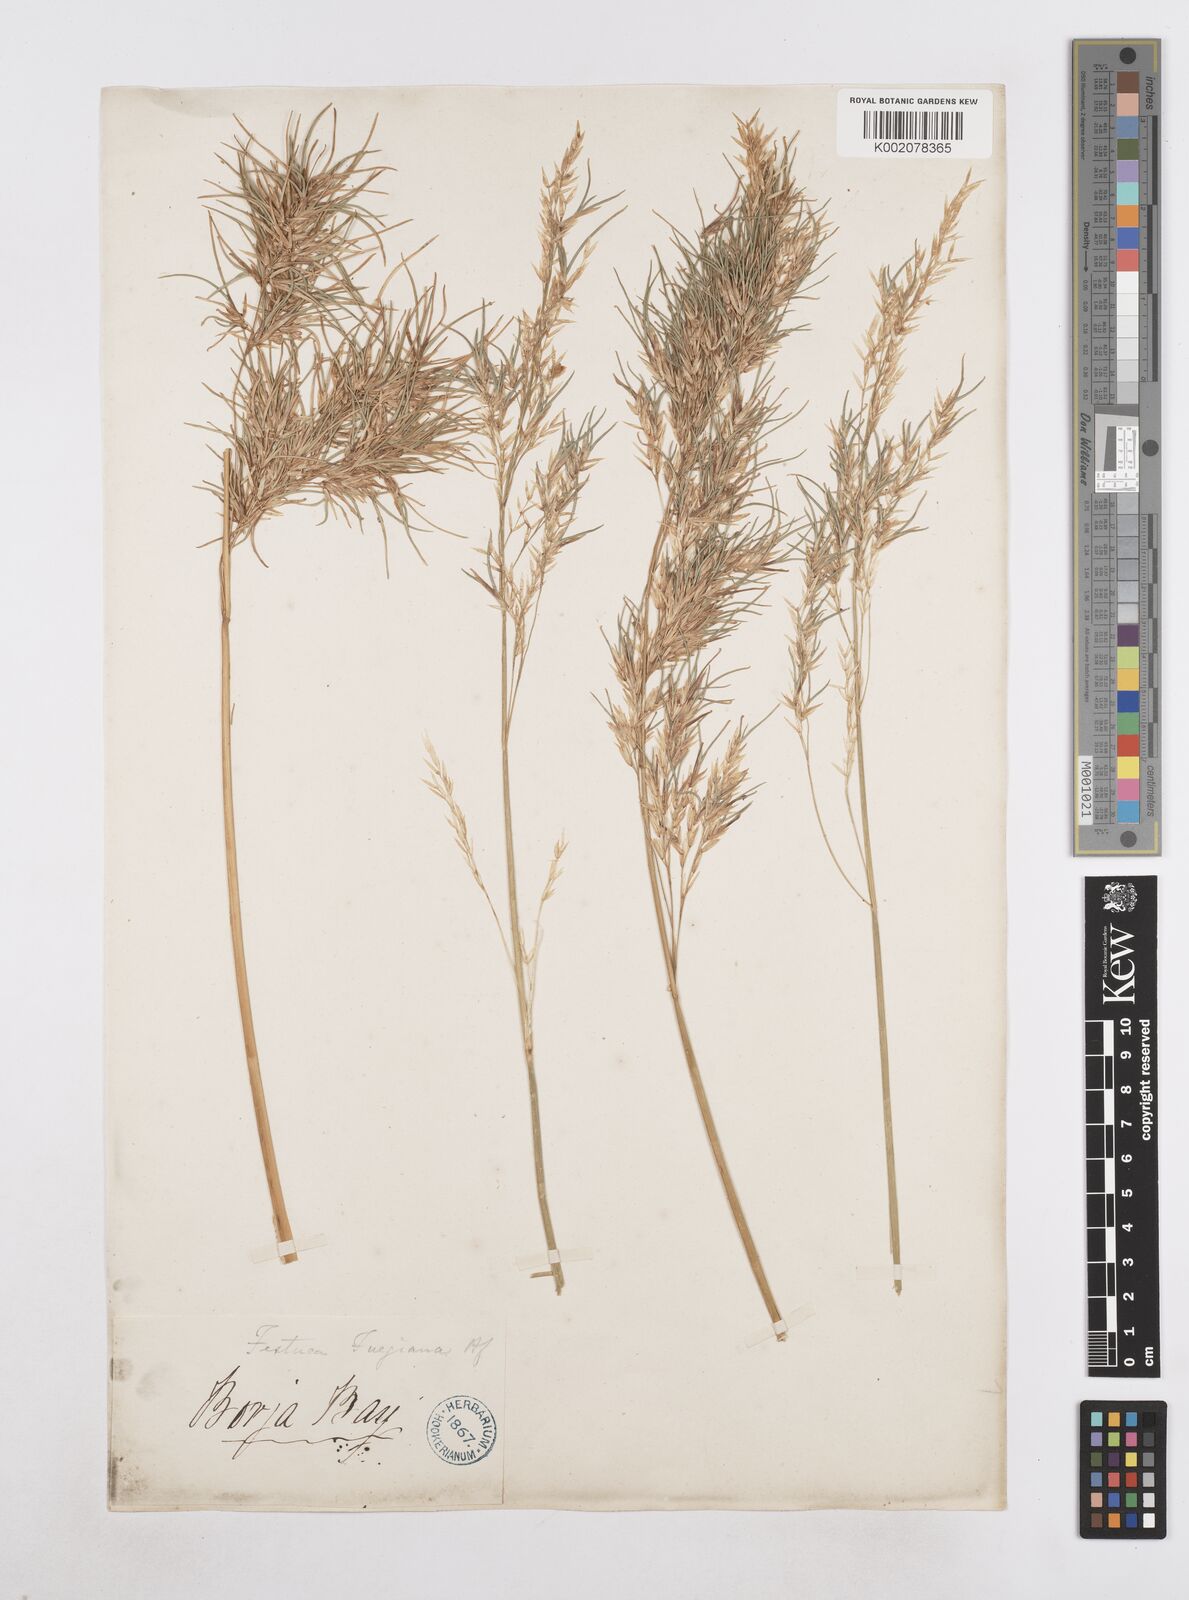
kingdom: Plantae
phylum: Tracheophyta
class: Liliopsida
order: Poales
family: Poaceae
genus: Poa
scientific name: Poa alopecurus
